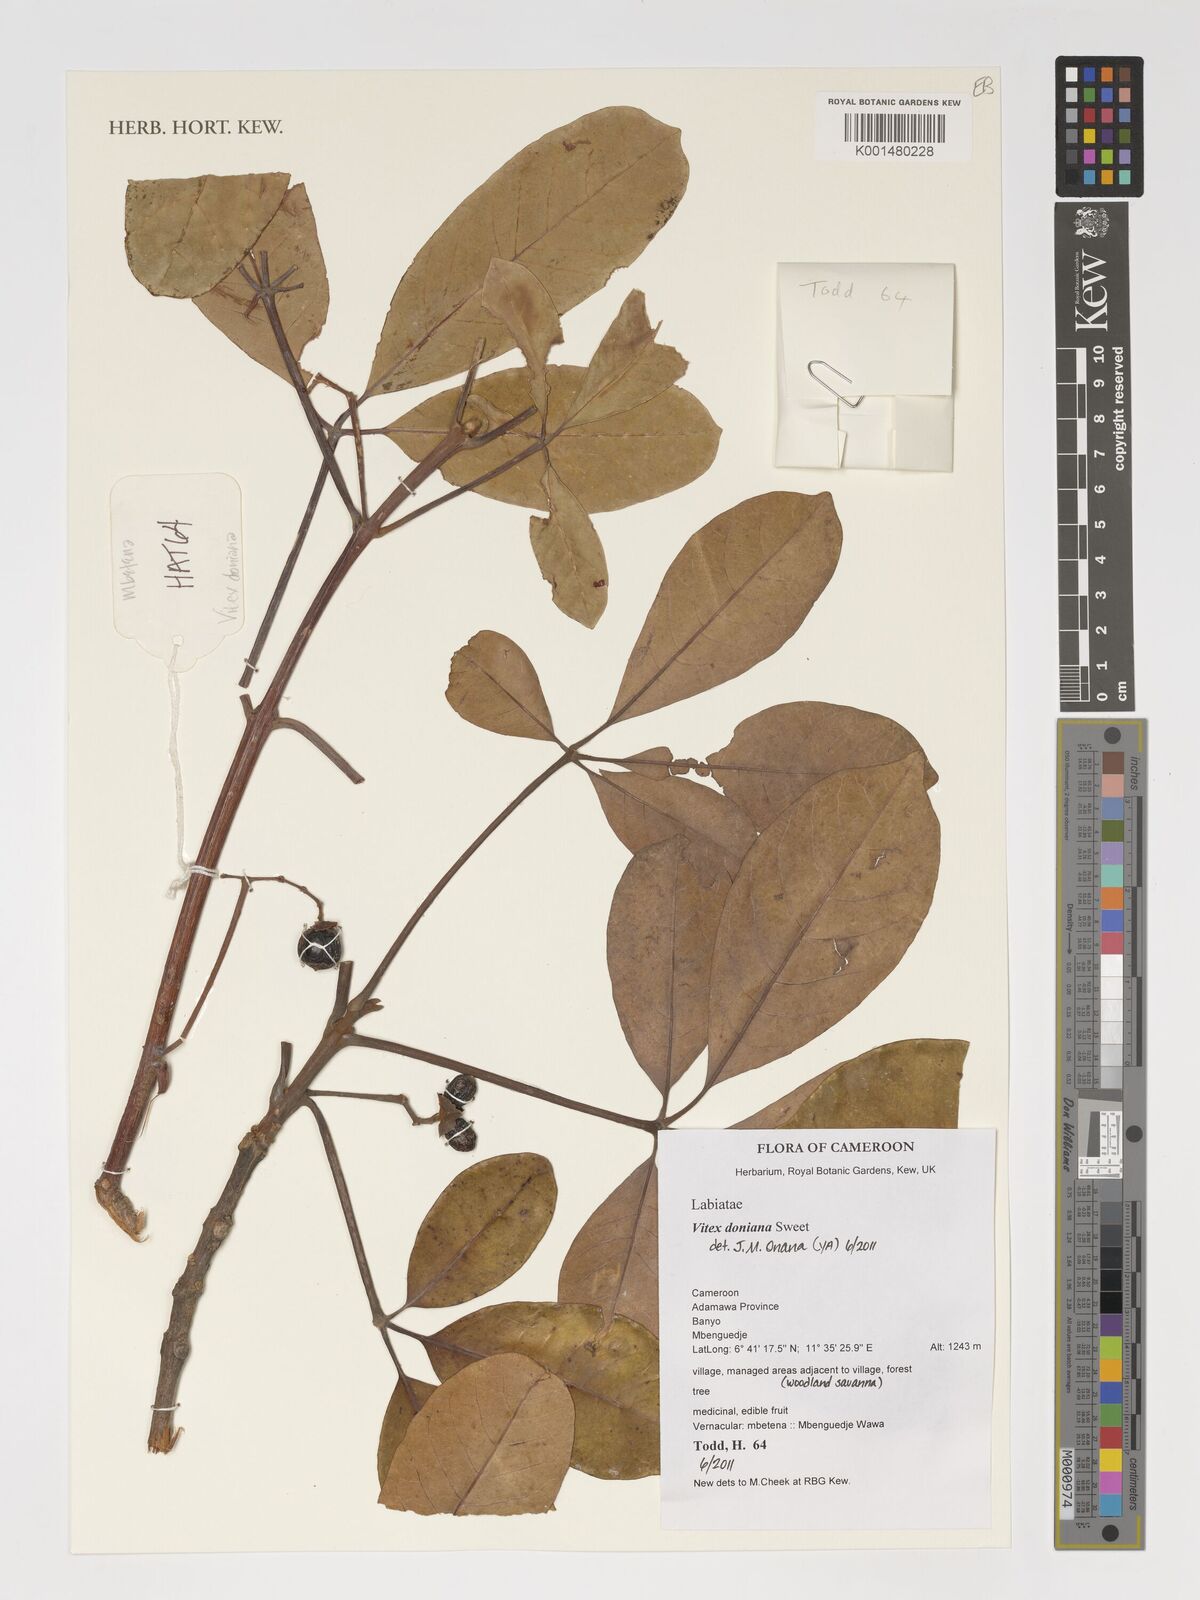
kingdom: Plantae
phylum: Tracheophyta
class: Magnoliopsida
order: Lamiales
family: Lamiaceae
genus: Vitex
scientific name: Vitex doniana
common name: Black plum
